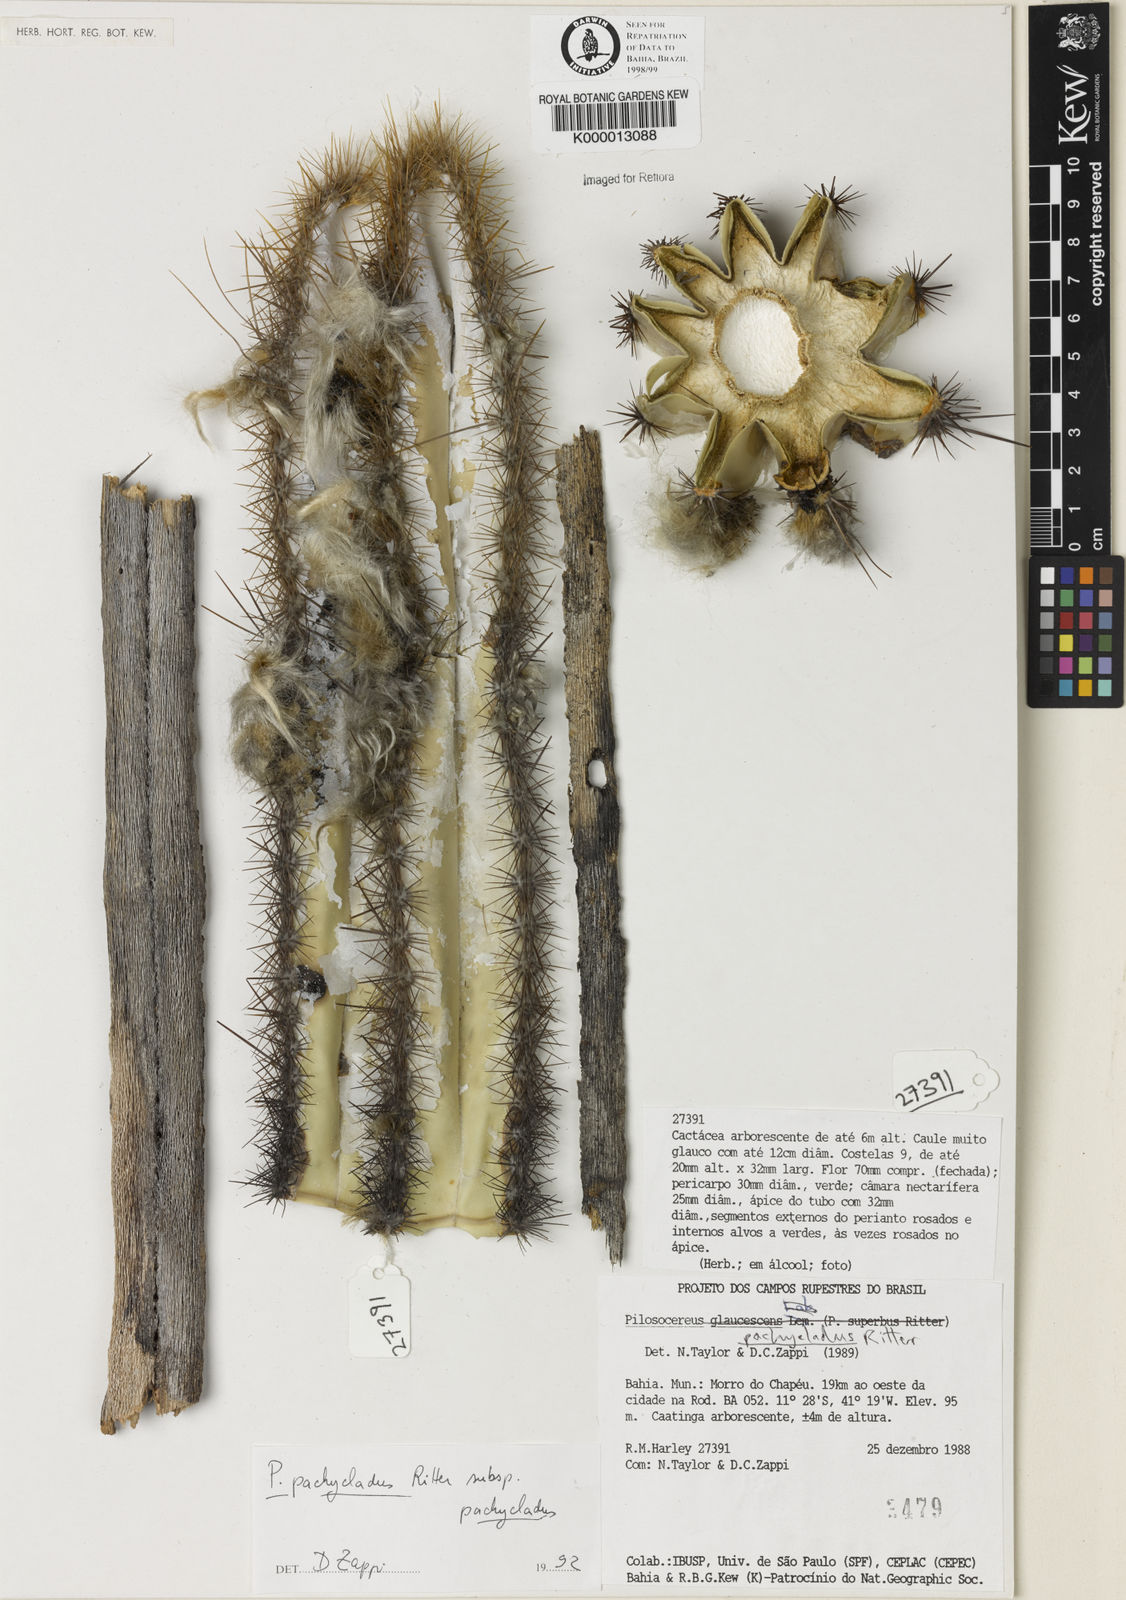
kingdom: Plantae
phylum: Tracheophyta
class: Magnoliopsida
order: Caryophyllales
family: Cactaceae
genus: Pilosocereus
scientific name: Pilosocereus pachycladus
